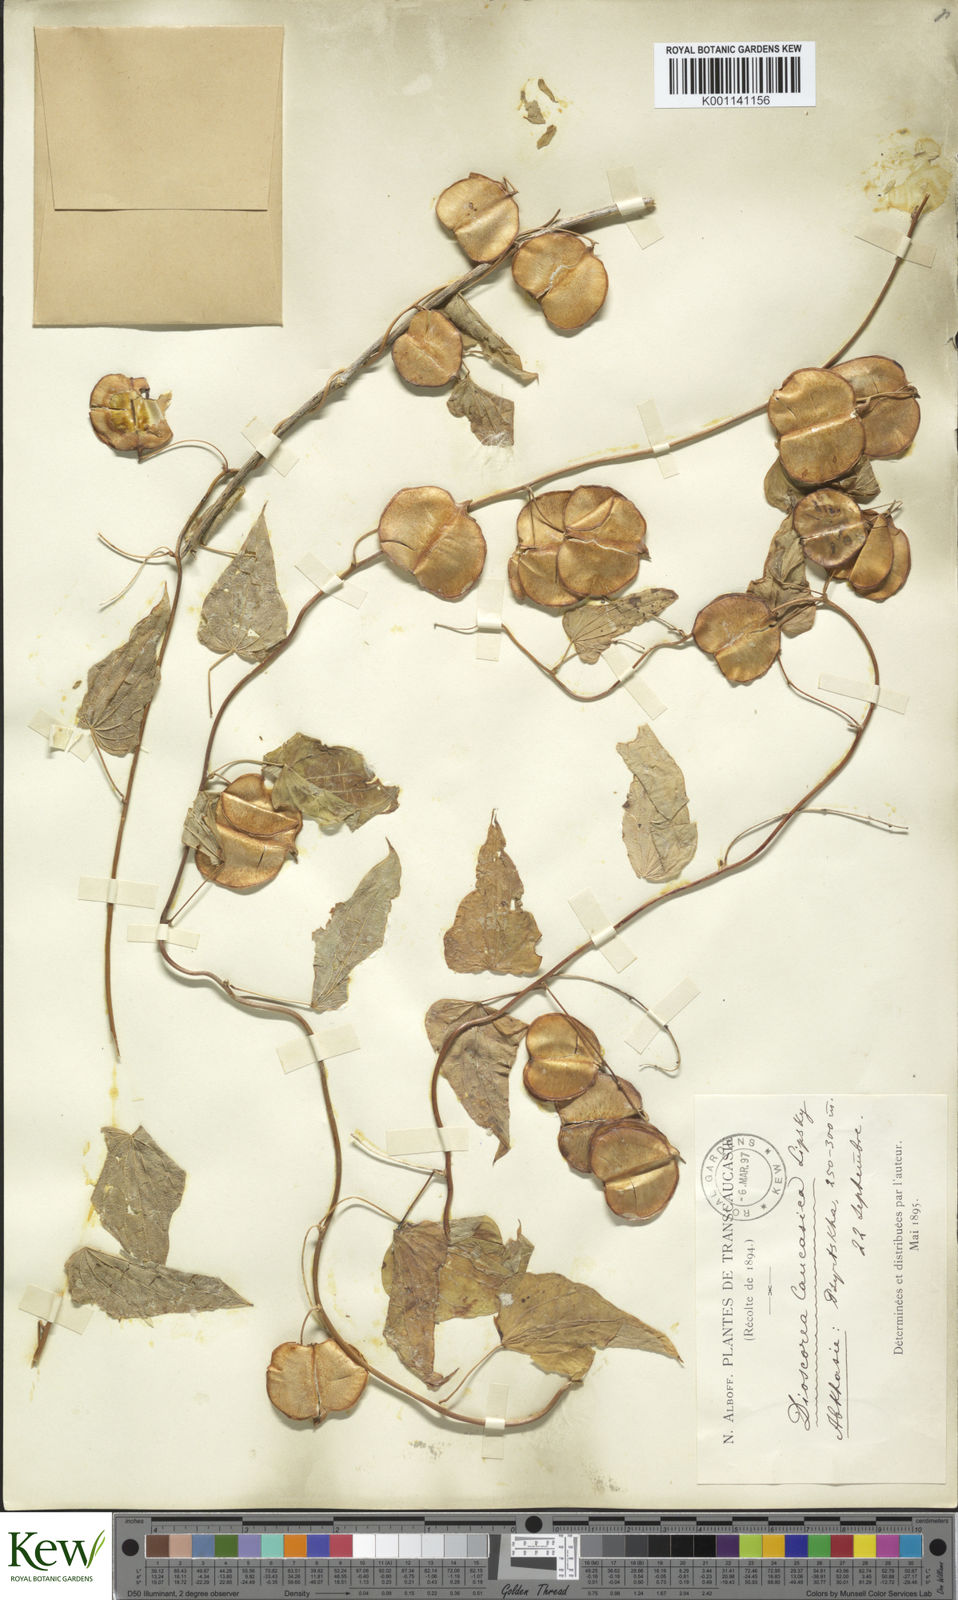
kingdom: Plantae
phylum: Tracheophyta
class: Liliopsida
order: Dioscoreales
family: Dioscoreaceae
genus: Dioscorea
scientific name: Dioscorea caucasica
